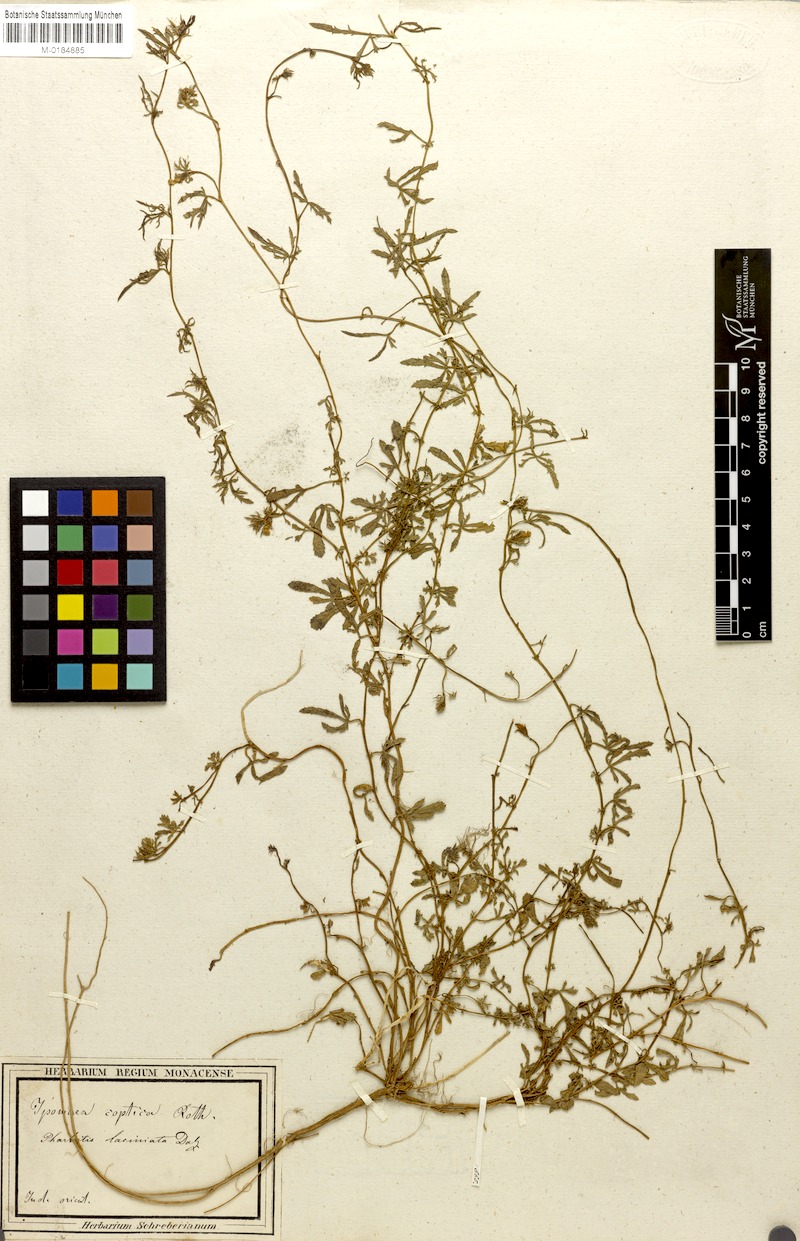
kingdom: Plantae
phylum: Tracheophyta
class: Magnoliopsida
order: Solanales
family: Convolvulaceae
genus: Ipomoea
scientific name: Ipomoea coptica
